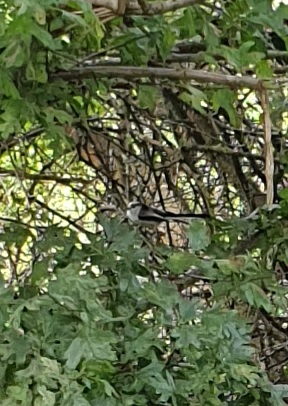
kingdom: Animalia
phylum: Chordata
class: Aves
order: Passeriformes
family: Aegithalidae
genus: Aegithalos
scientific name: Aegithalos caudatus
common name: Halemejse
